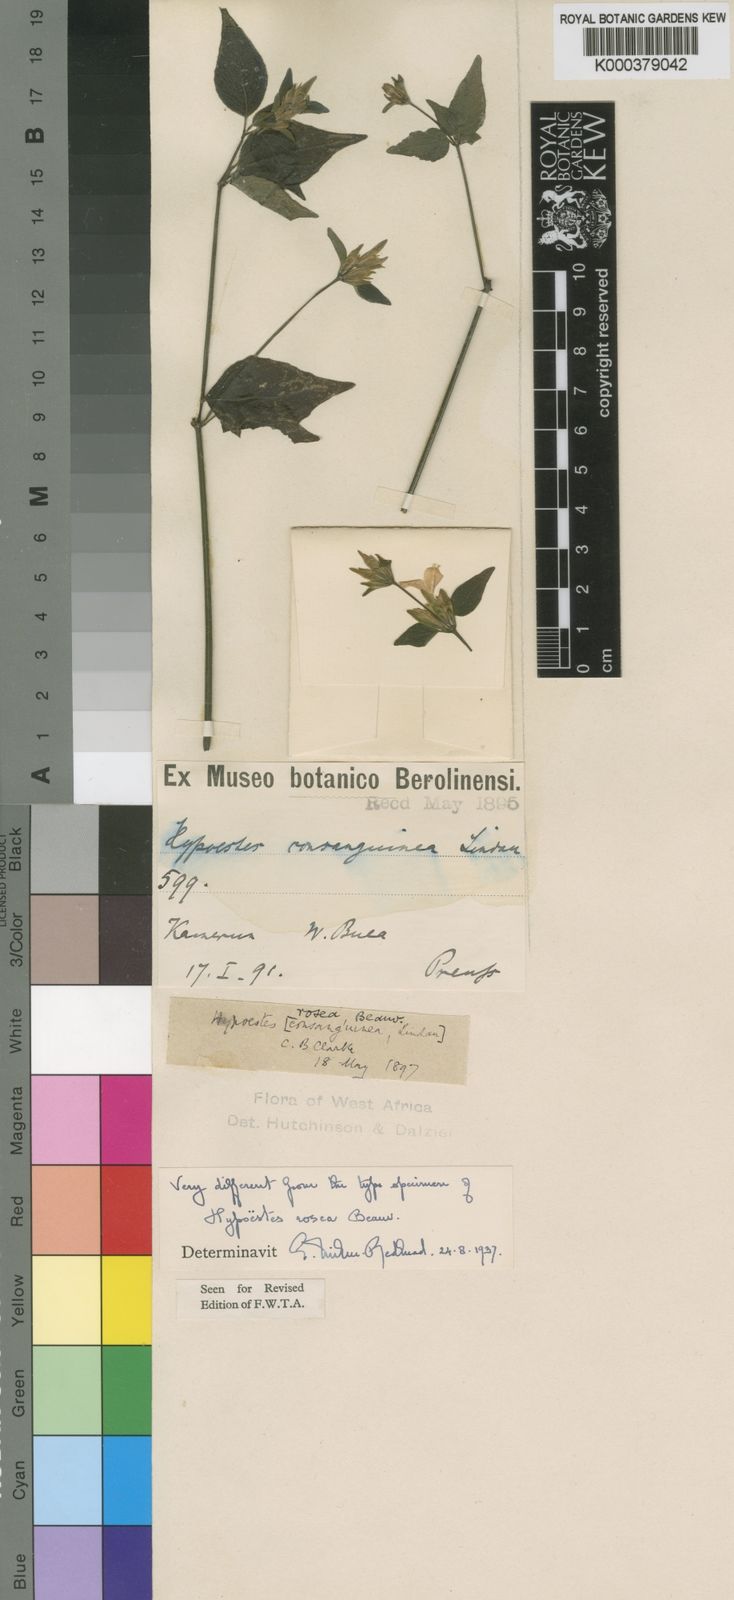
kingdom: Plantae
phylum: Tracheophyta
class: Magnoliopsida
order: Lamiales
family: Acanthaceae
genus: Hypoestes
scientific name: Hypoestes triflora
